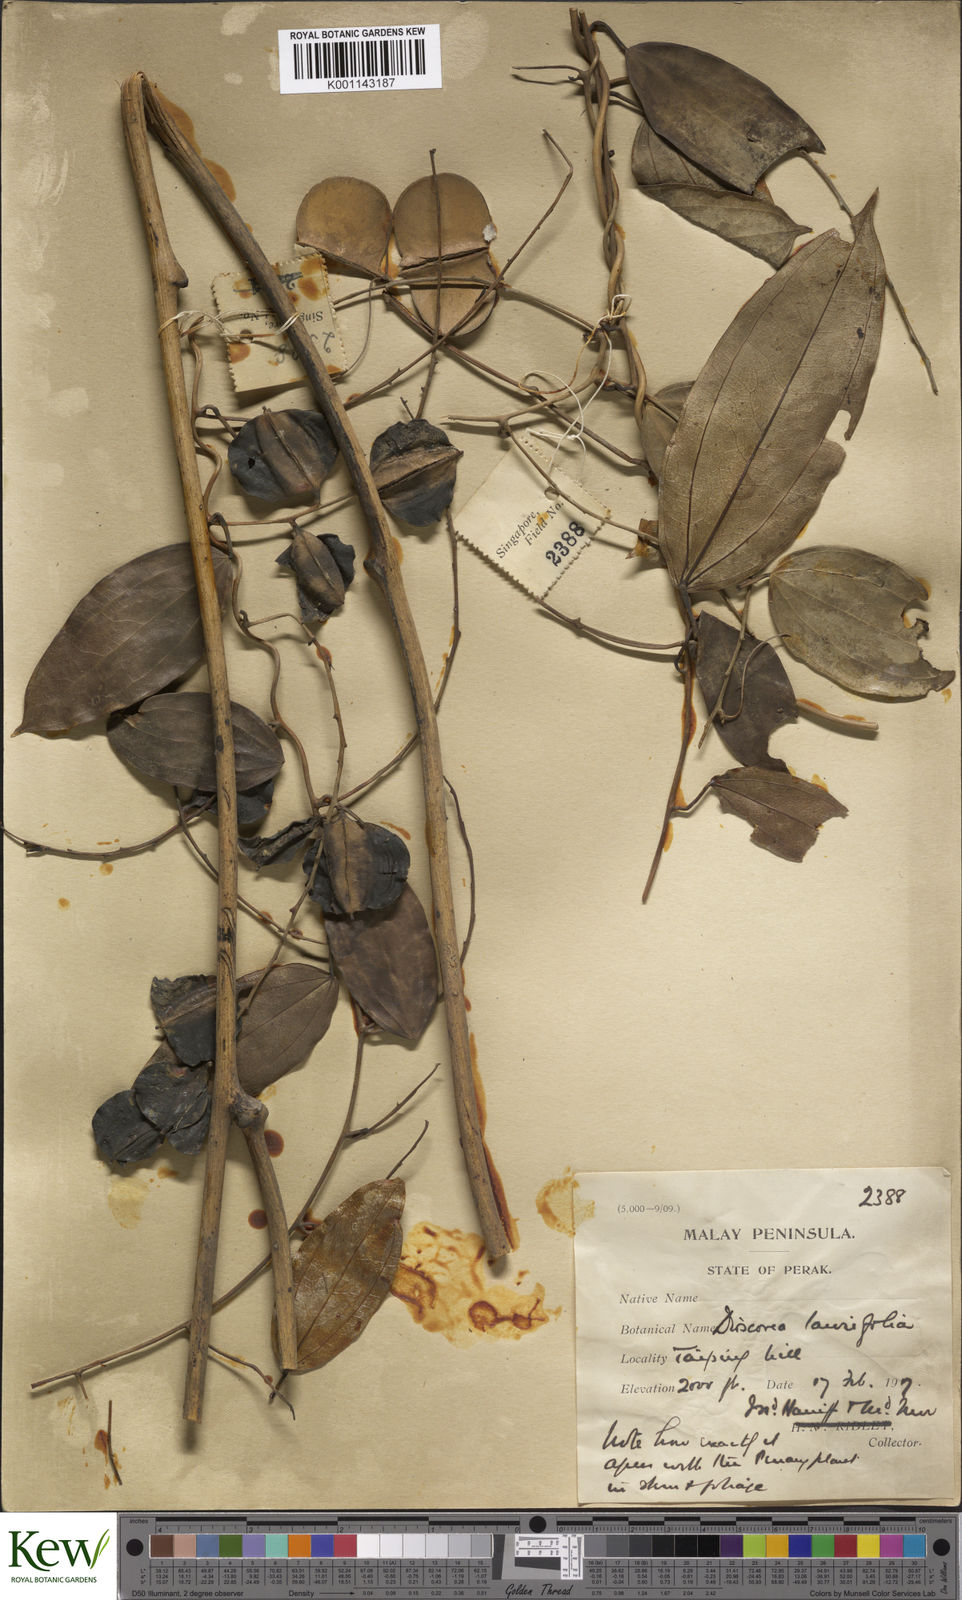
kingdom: Plantae
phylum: Tracheophyta
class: Liliopsida
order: Dioscoreales
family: Dioscoreaceae
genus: Dioscorea
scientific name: Dioscorea laurifolia
